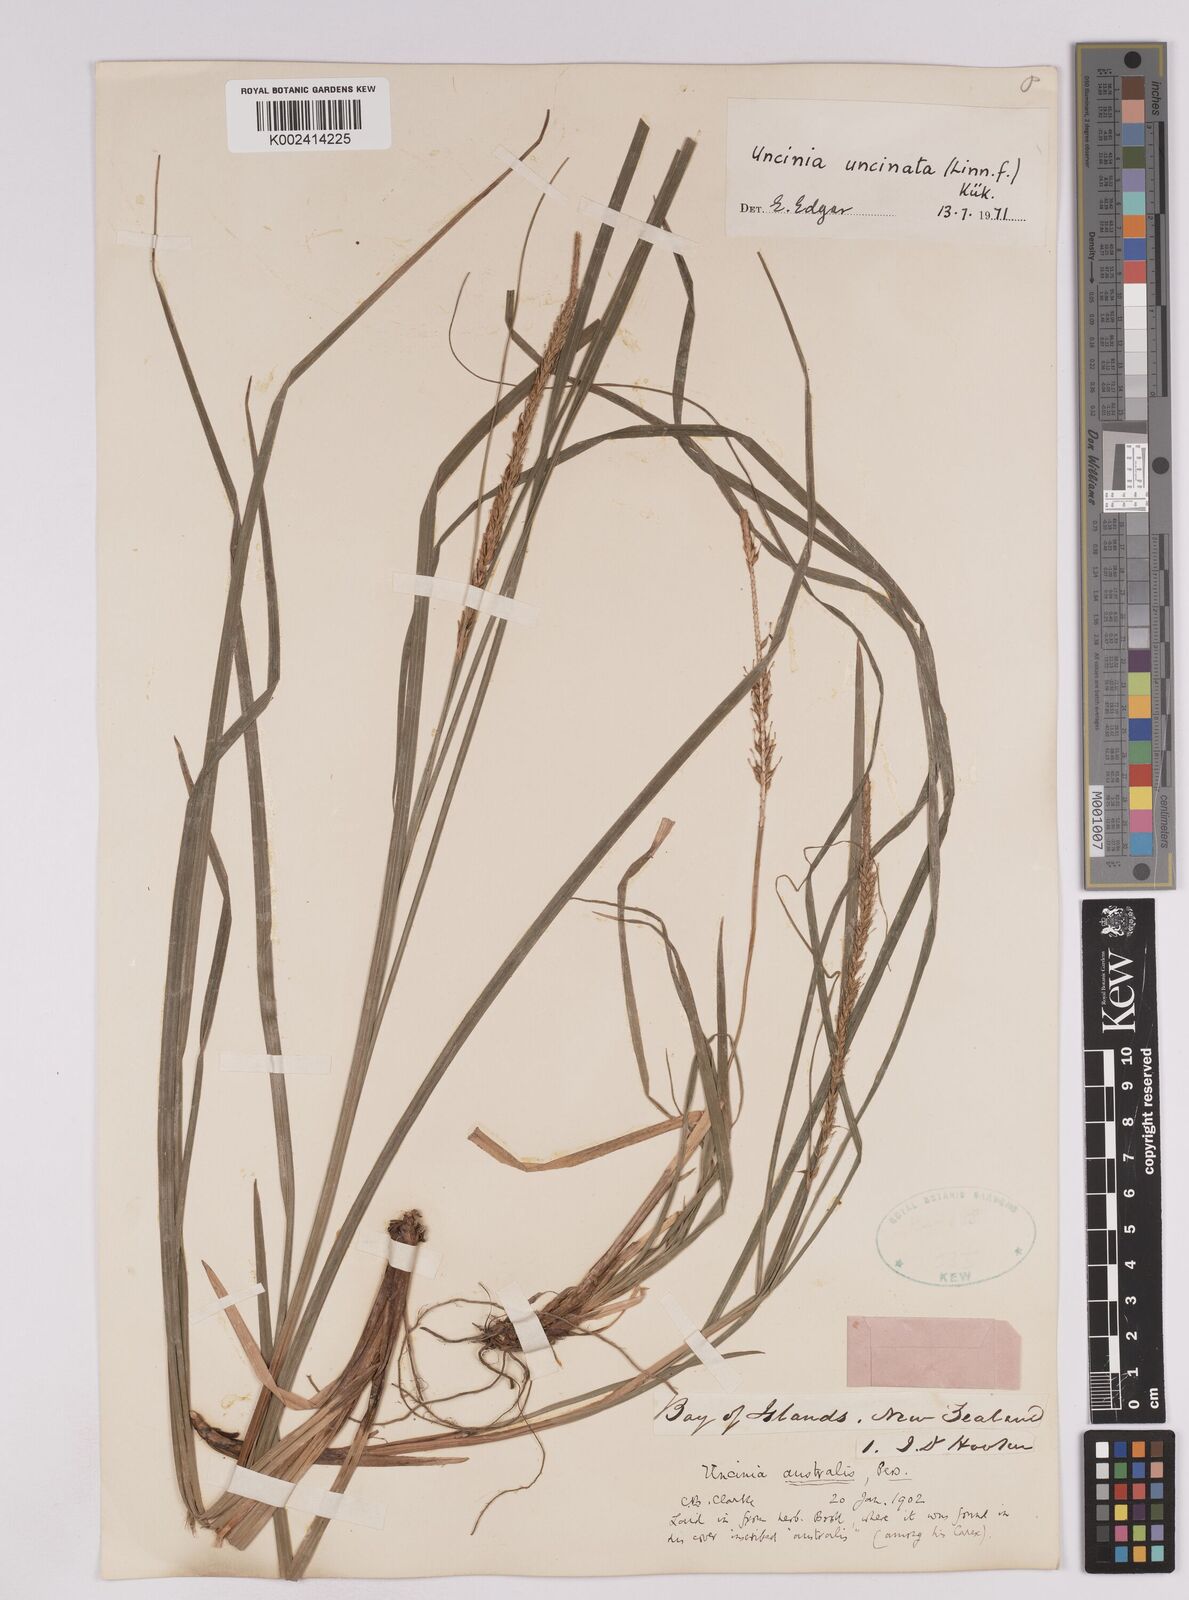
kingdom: Plantae
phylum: Tracheophyta
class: Liliopsida
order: Poales
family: Cyperaceae
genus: Carex
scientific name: Carex uncinata
